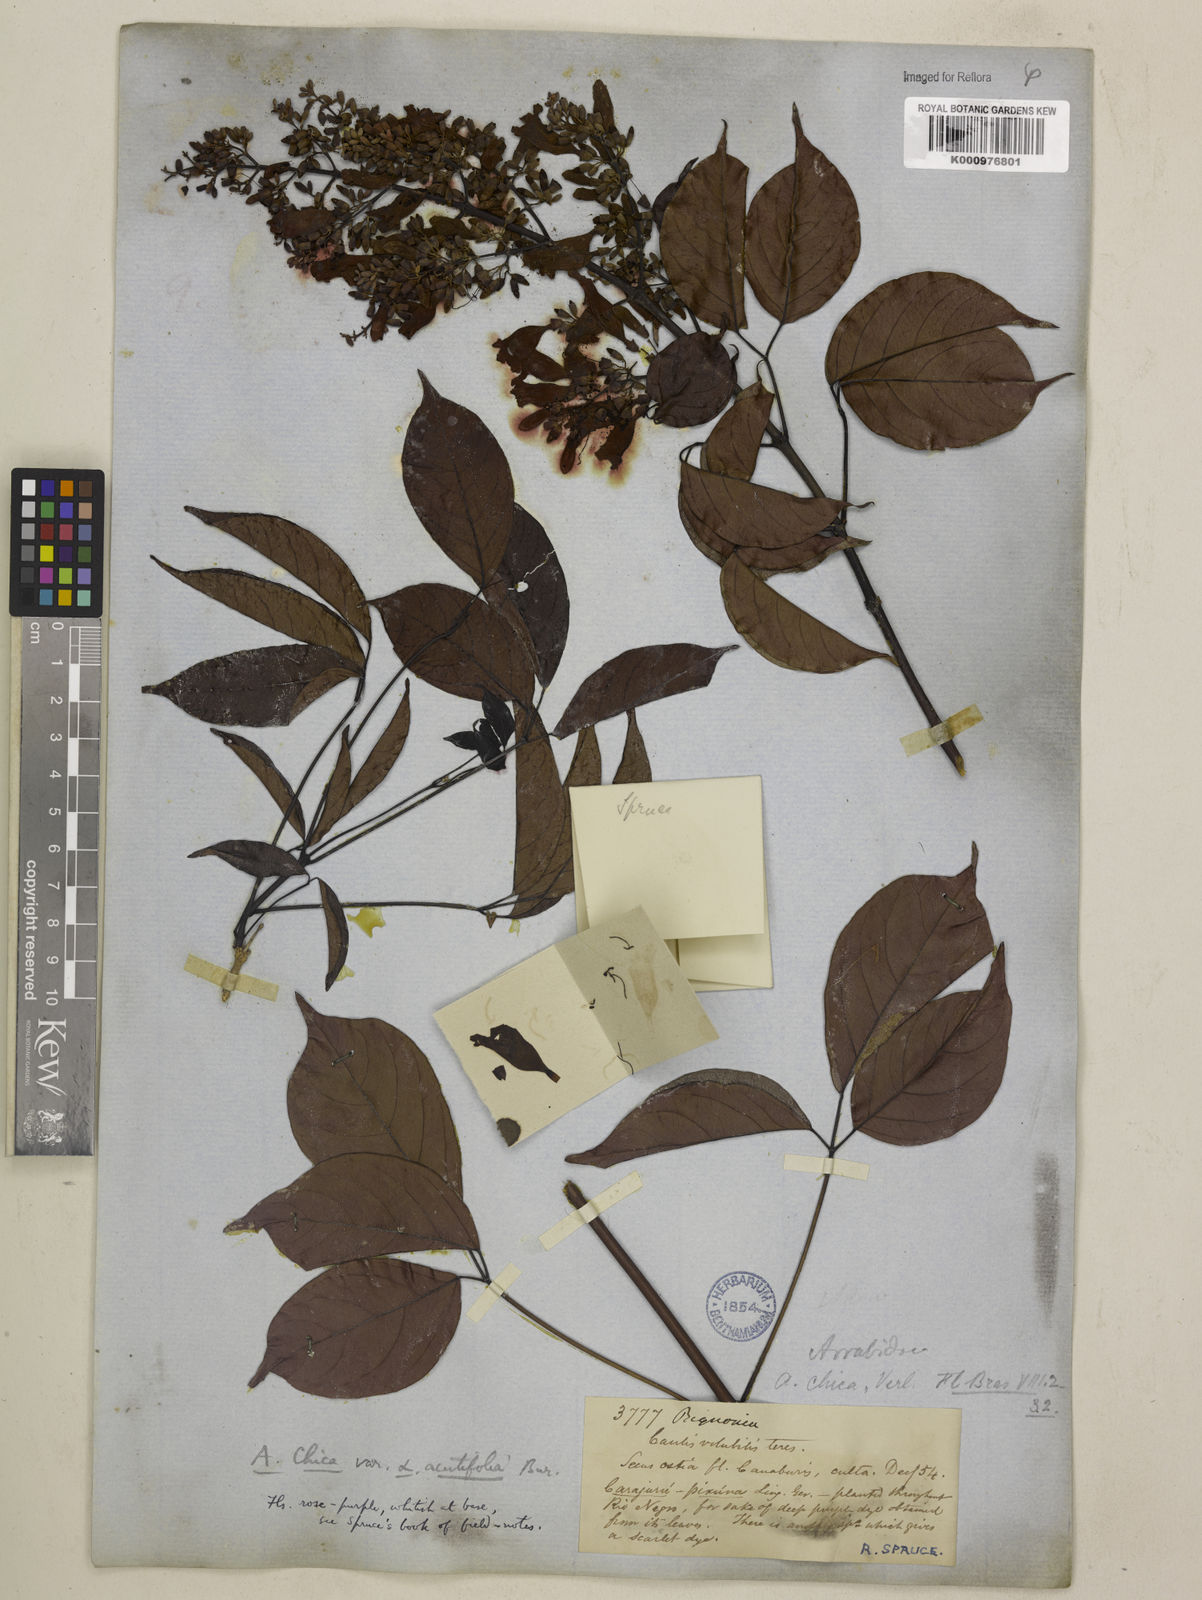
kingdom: Plantae
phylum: Tracheophyta
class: Magnoliopsida
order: Lamiales
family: Bignoniaceae
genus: Fridericia
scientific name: Fridericia chica
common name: Cricketvine
